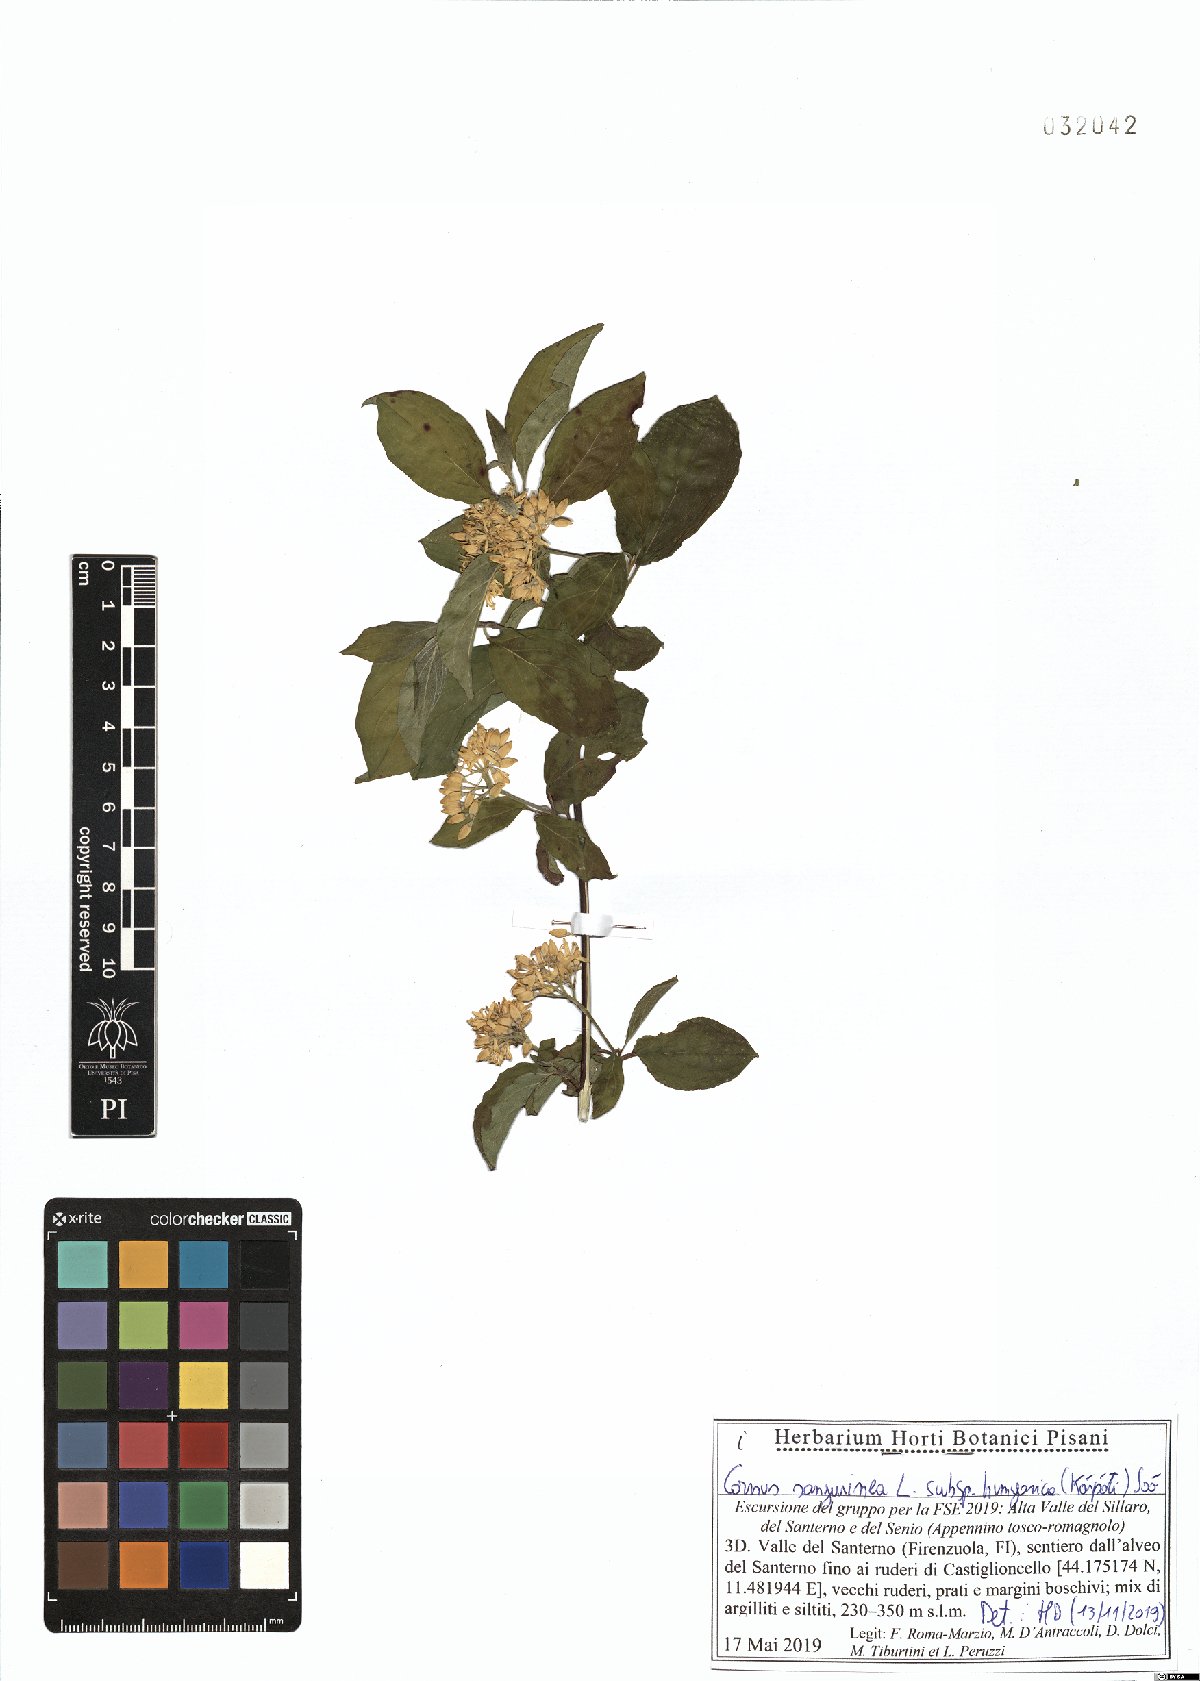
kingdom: Plantae
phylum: Tracheophyta
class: Magnoliopsida
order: Cornales
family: Cornaceae
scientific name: Cornaceae
